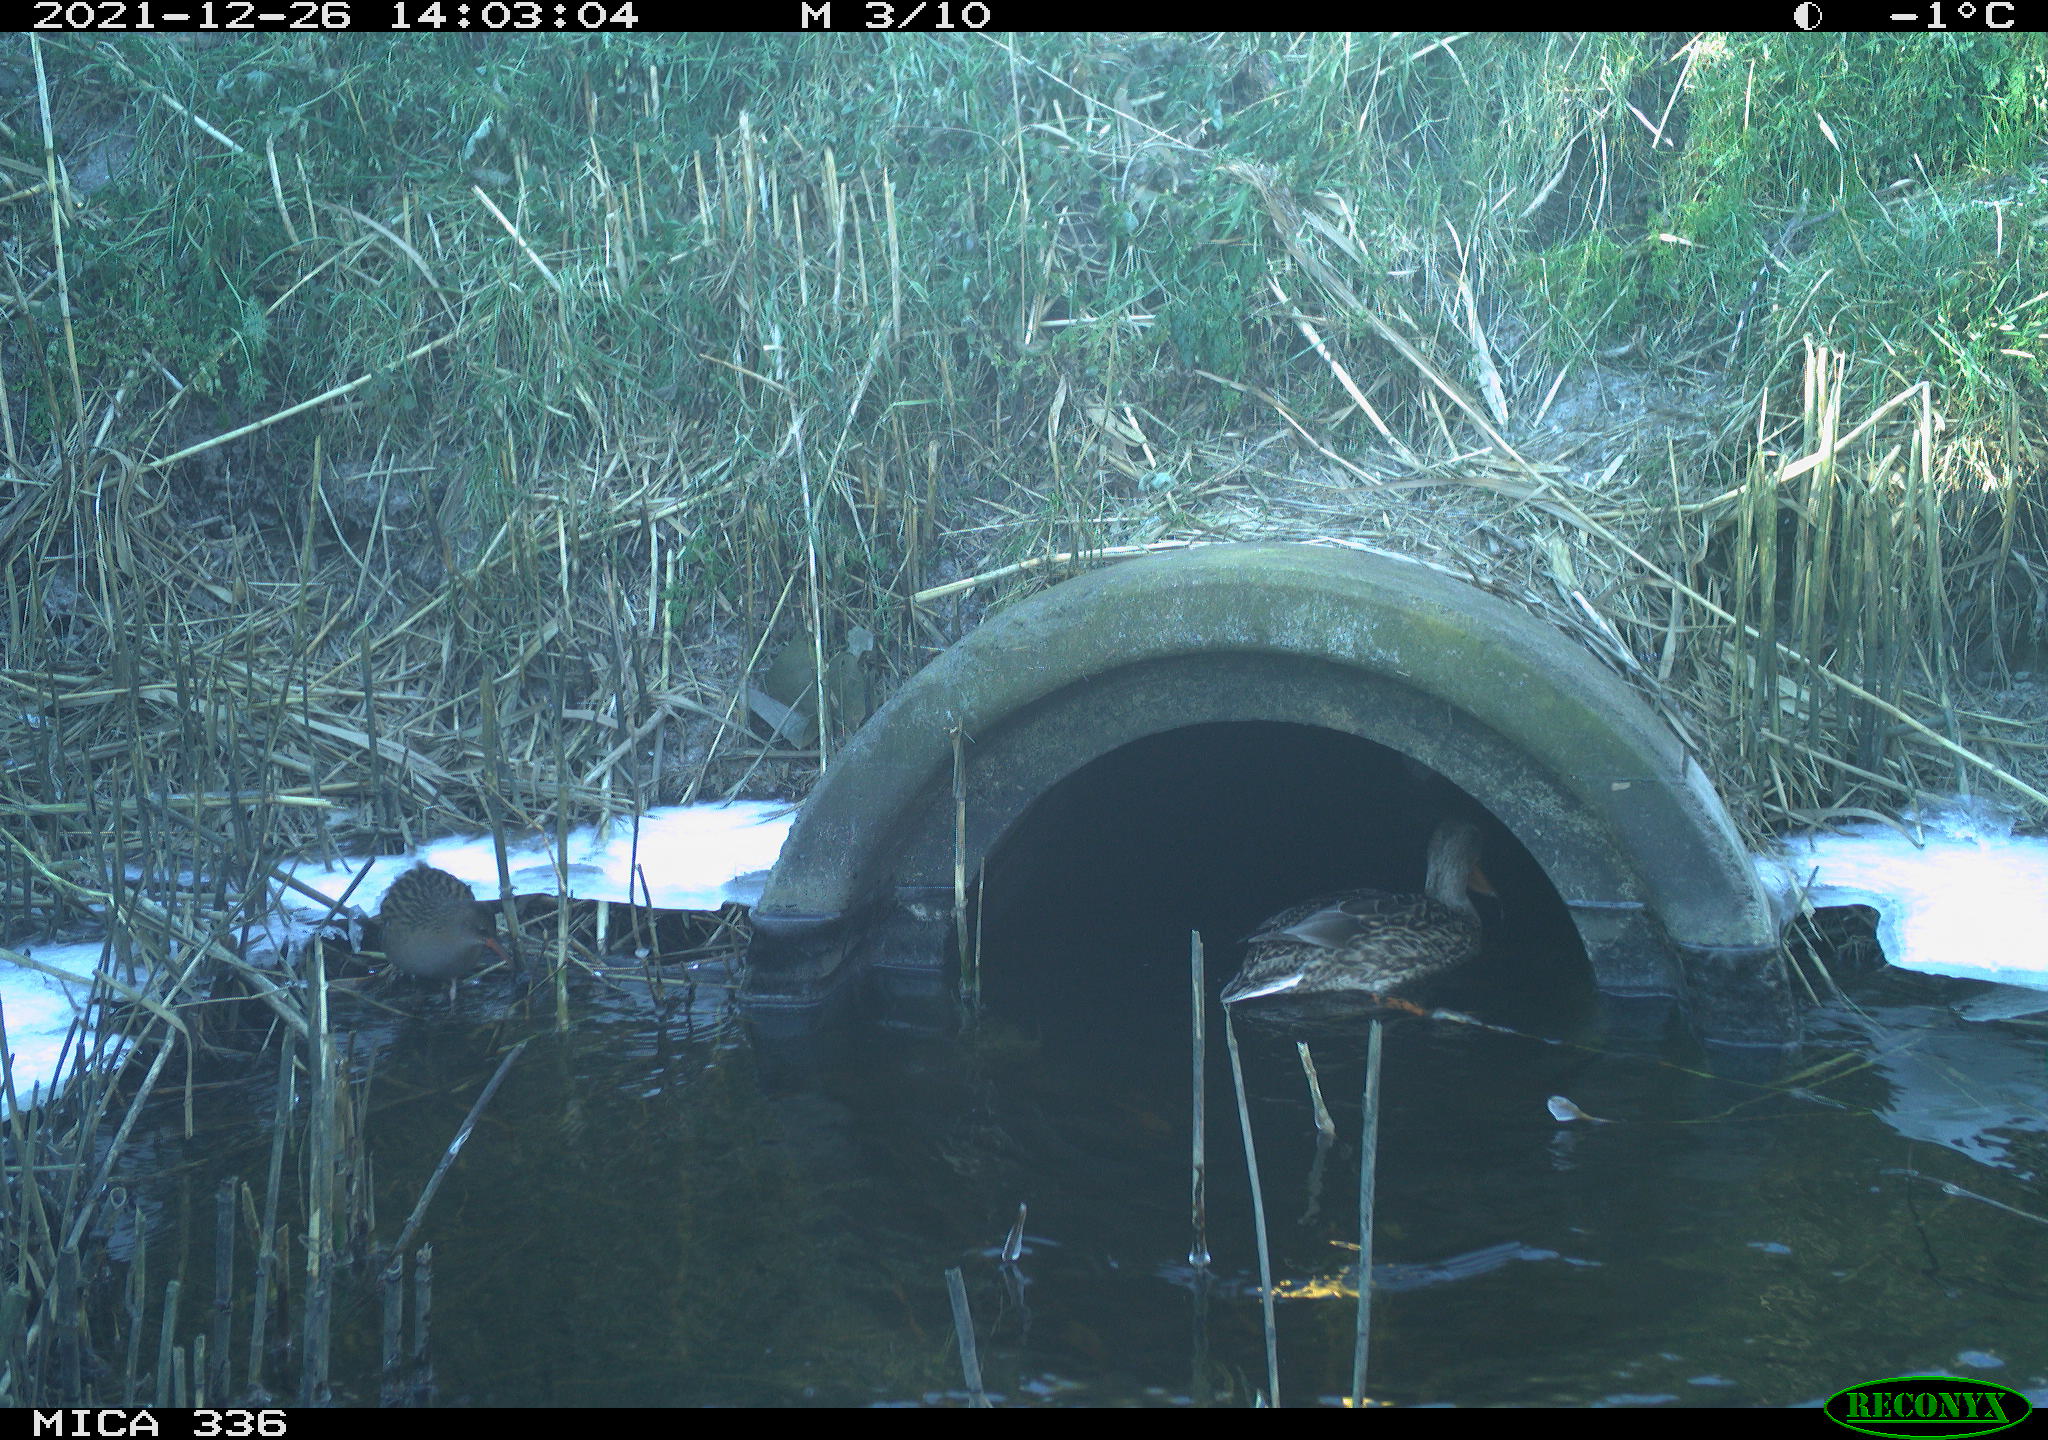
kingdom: Animalia
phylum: Chordata
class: Aves
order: Gruiformes
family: Rallidae
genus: Gallinula
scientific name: Gallinula chloropus
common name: Common moorhen
